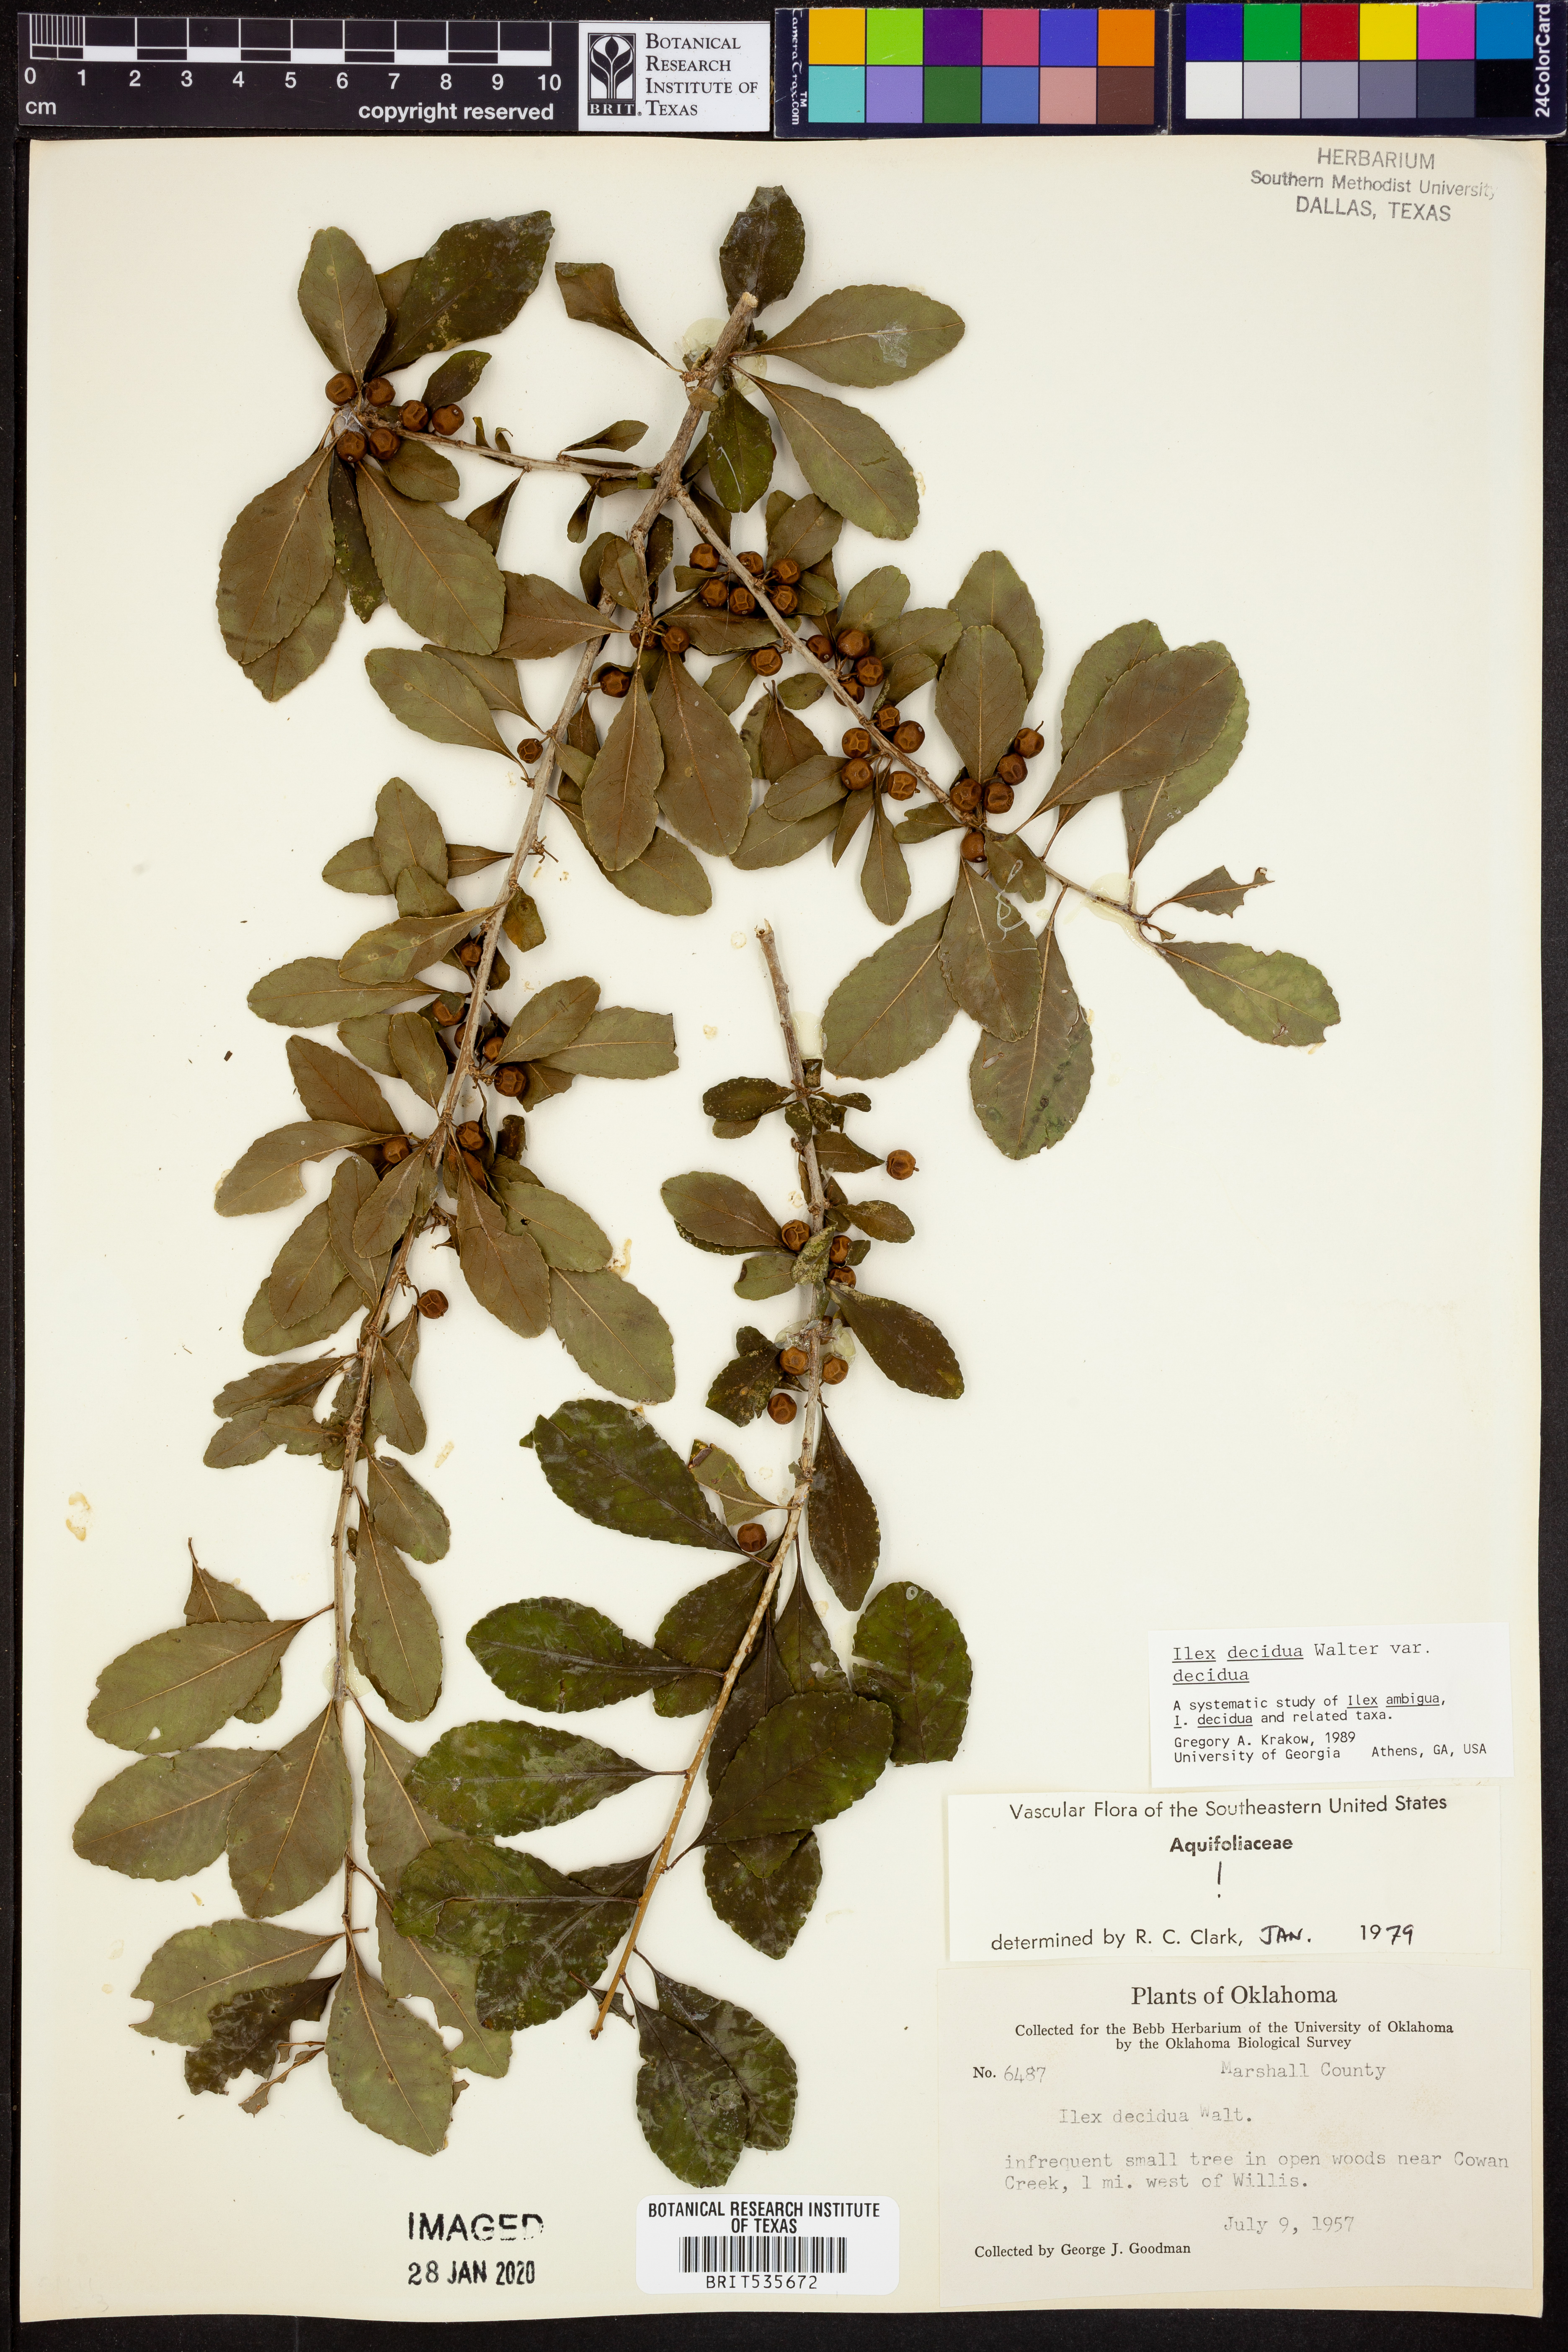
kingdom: Plantae
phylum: Tracheophyta
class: Magnoliopsida
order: Aquifoliales
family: Aquifoliaceae
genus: Ilex
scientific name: Ilex decidua
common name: Possum-haw
